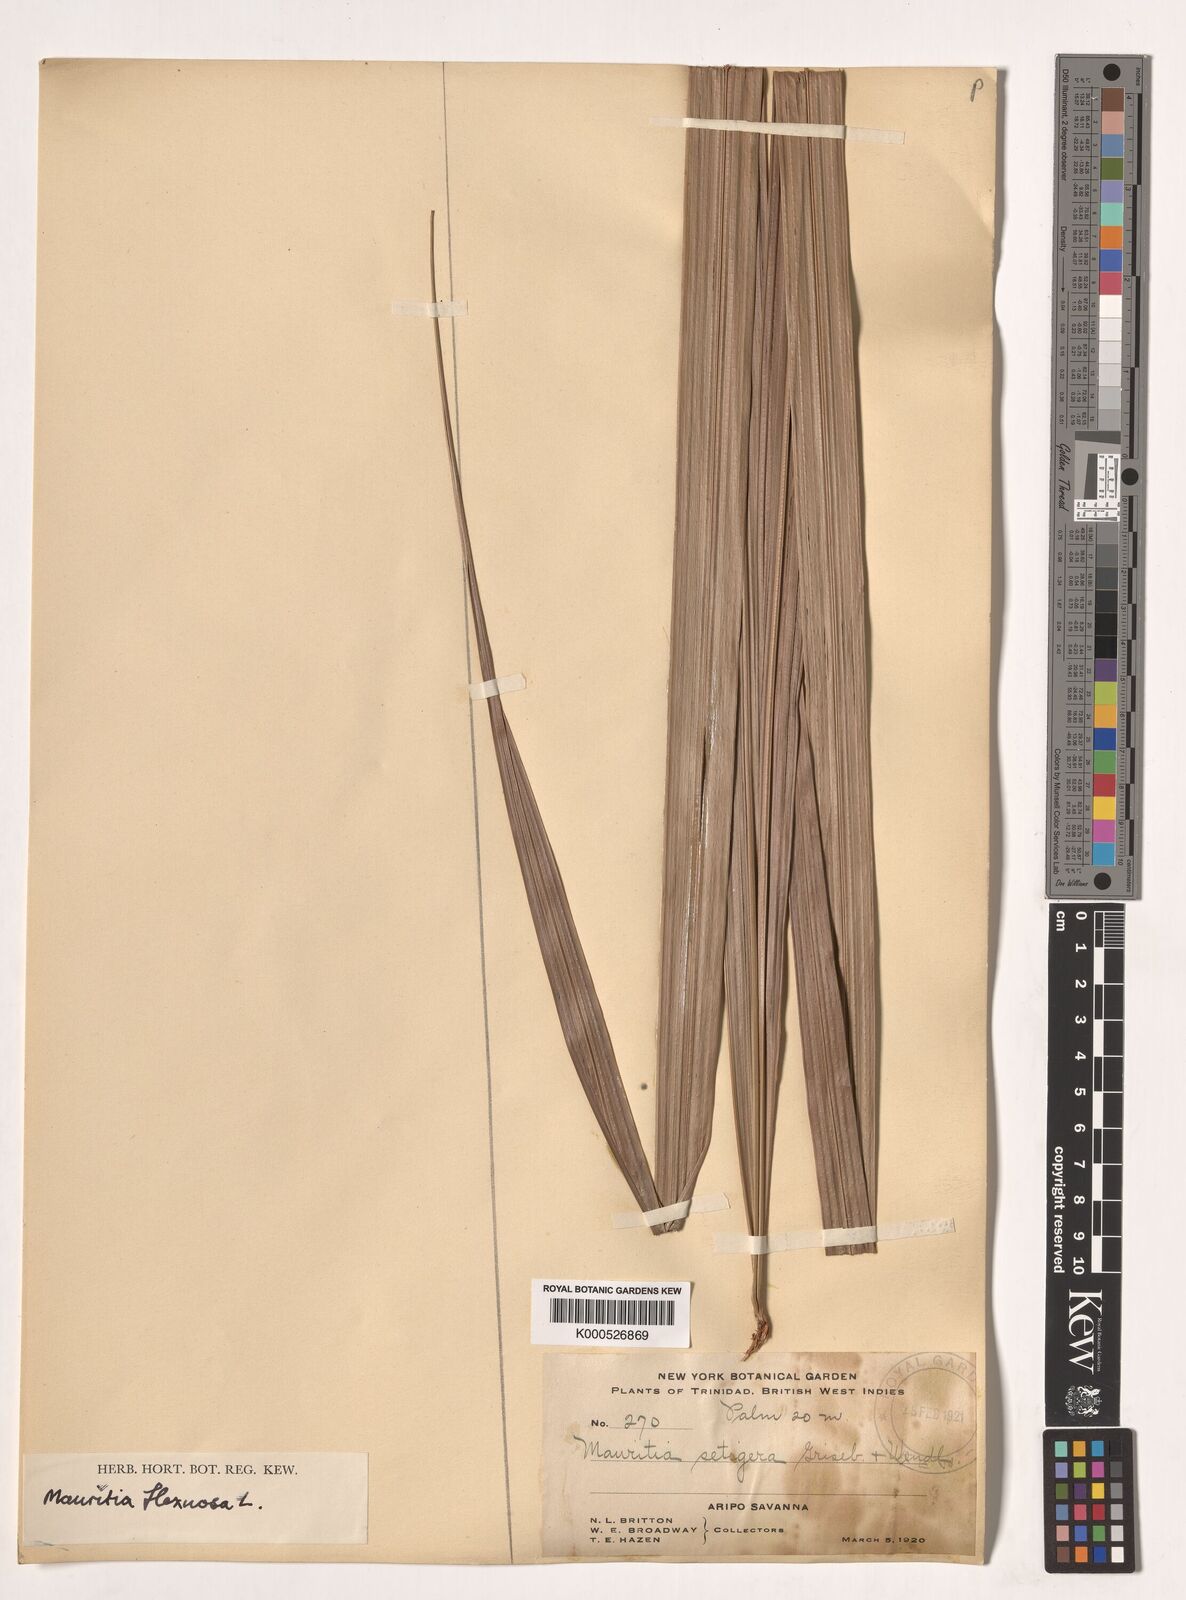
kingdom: Plantae
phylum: Tracheophyta
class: Liliopsida
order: Arecales
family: Arecaceae
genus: Mauritia
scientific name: Mauritia flexuosa
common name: Tree-of-life
